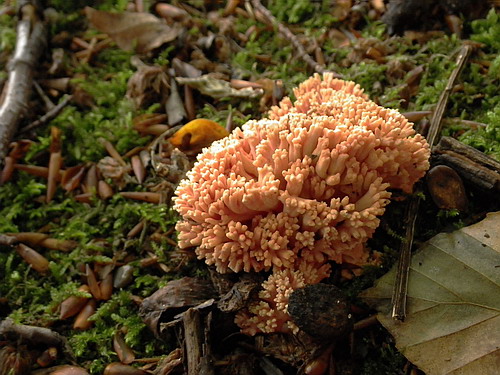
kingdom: Fungi
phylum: Basidiomycota
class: Agaricomycetes
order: Gomphales
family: Gomphaceae
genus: Ramaria
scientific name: Ramaria botrytis
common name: drue-koralsvamp
